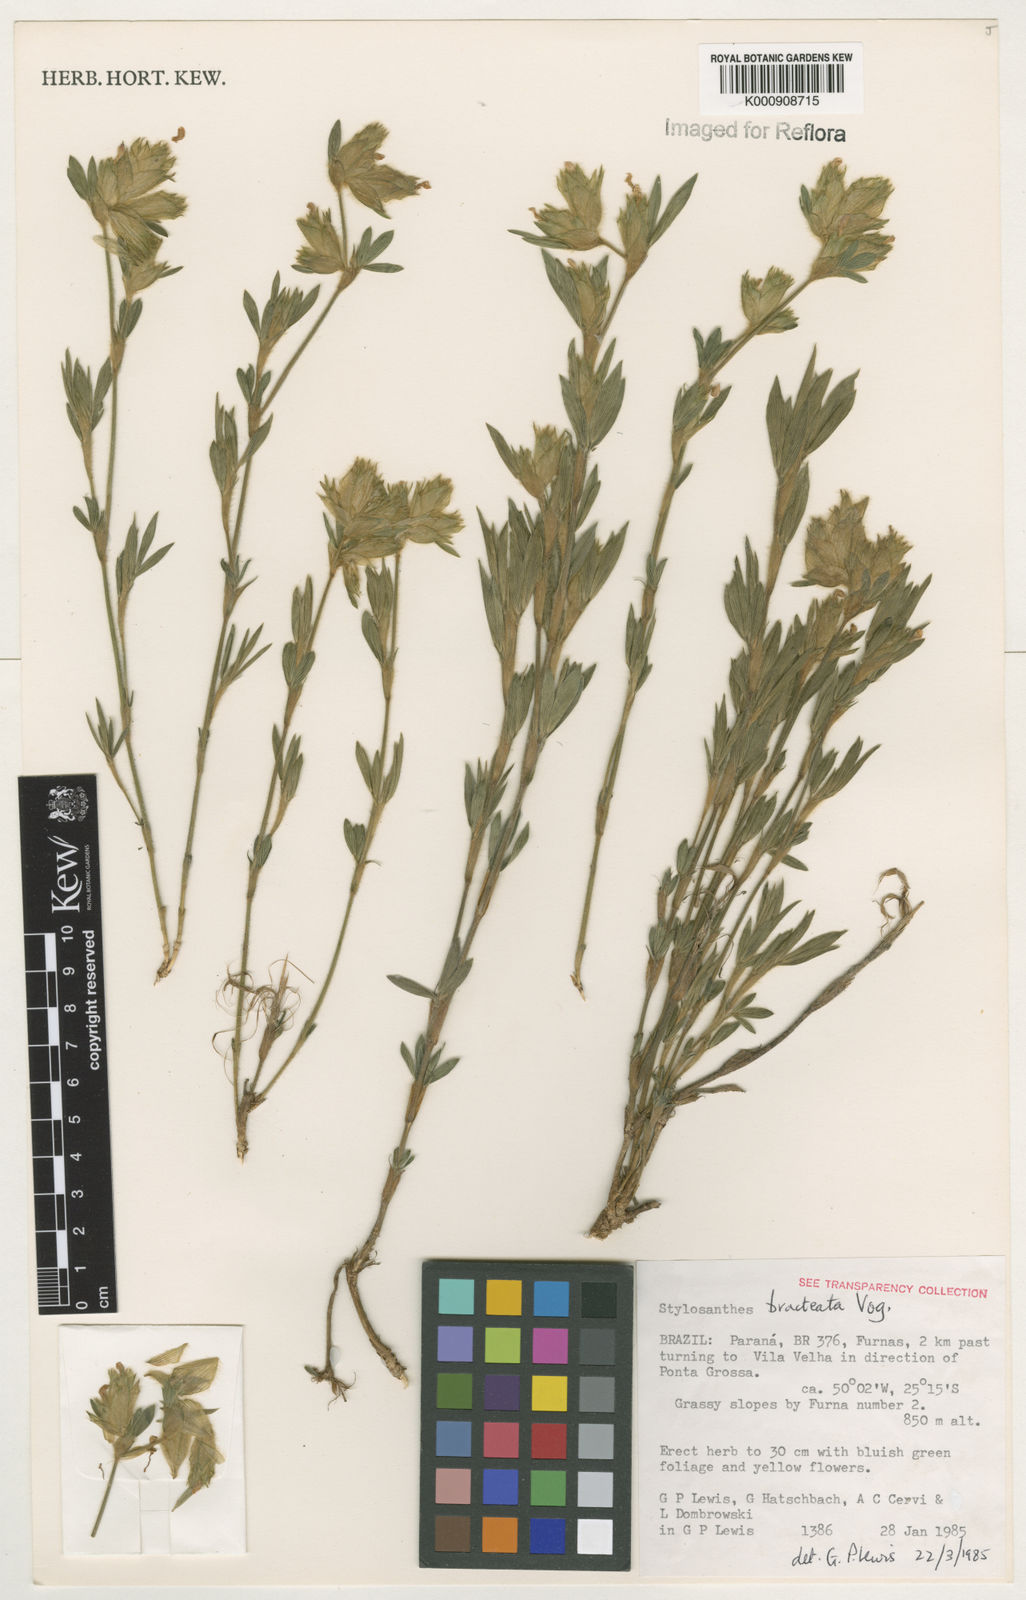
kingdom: Plantae
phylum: Tracheophyta
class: Magnoliopsida
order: Fabales
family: Fabaceae
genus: Stylosanthes
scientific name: Stylosanthes bracteata
